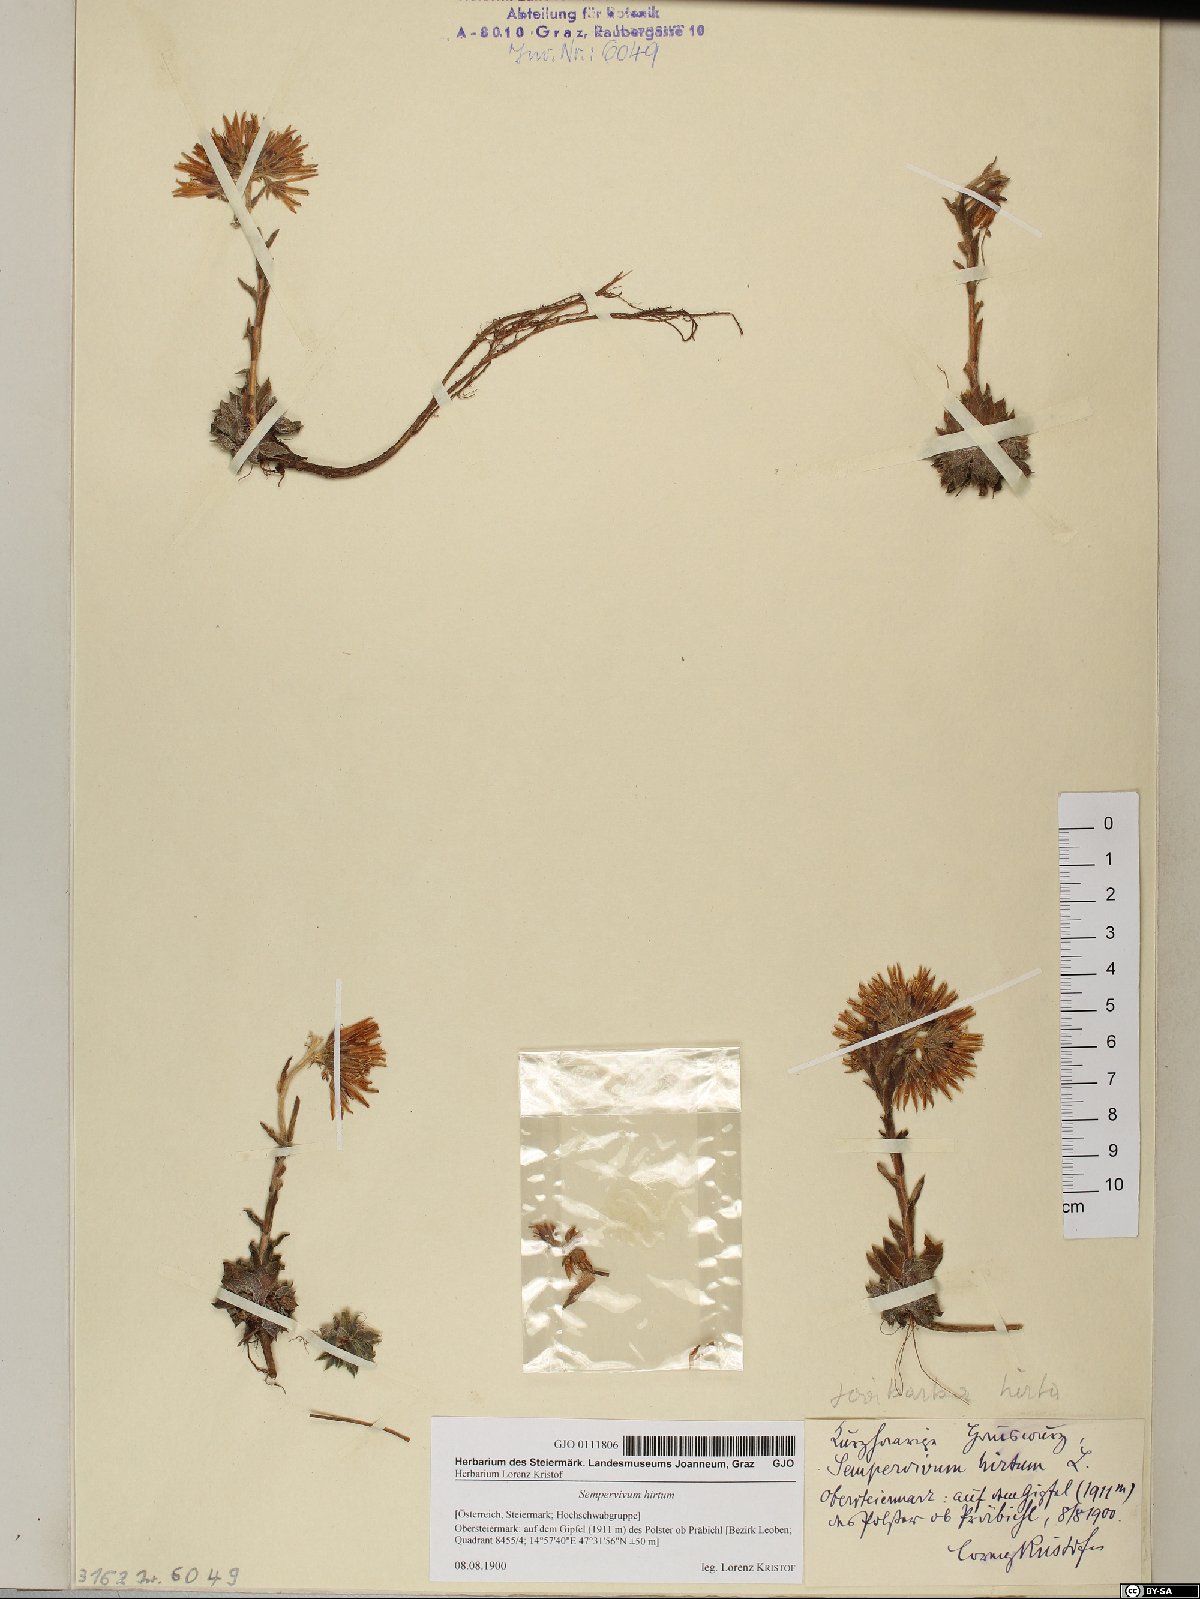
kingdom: Plantae
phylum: Tracheophyta
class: Magnoliopsida
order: Saxifragales
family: Crassulaceae
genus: Sempervivum
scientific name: Sempervivum globiferum
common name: Rolling hen-and-chicks
